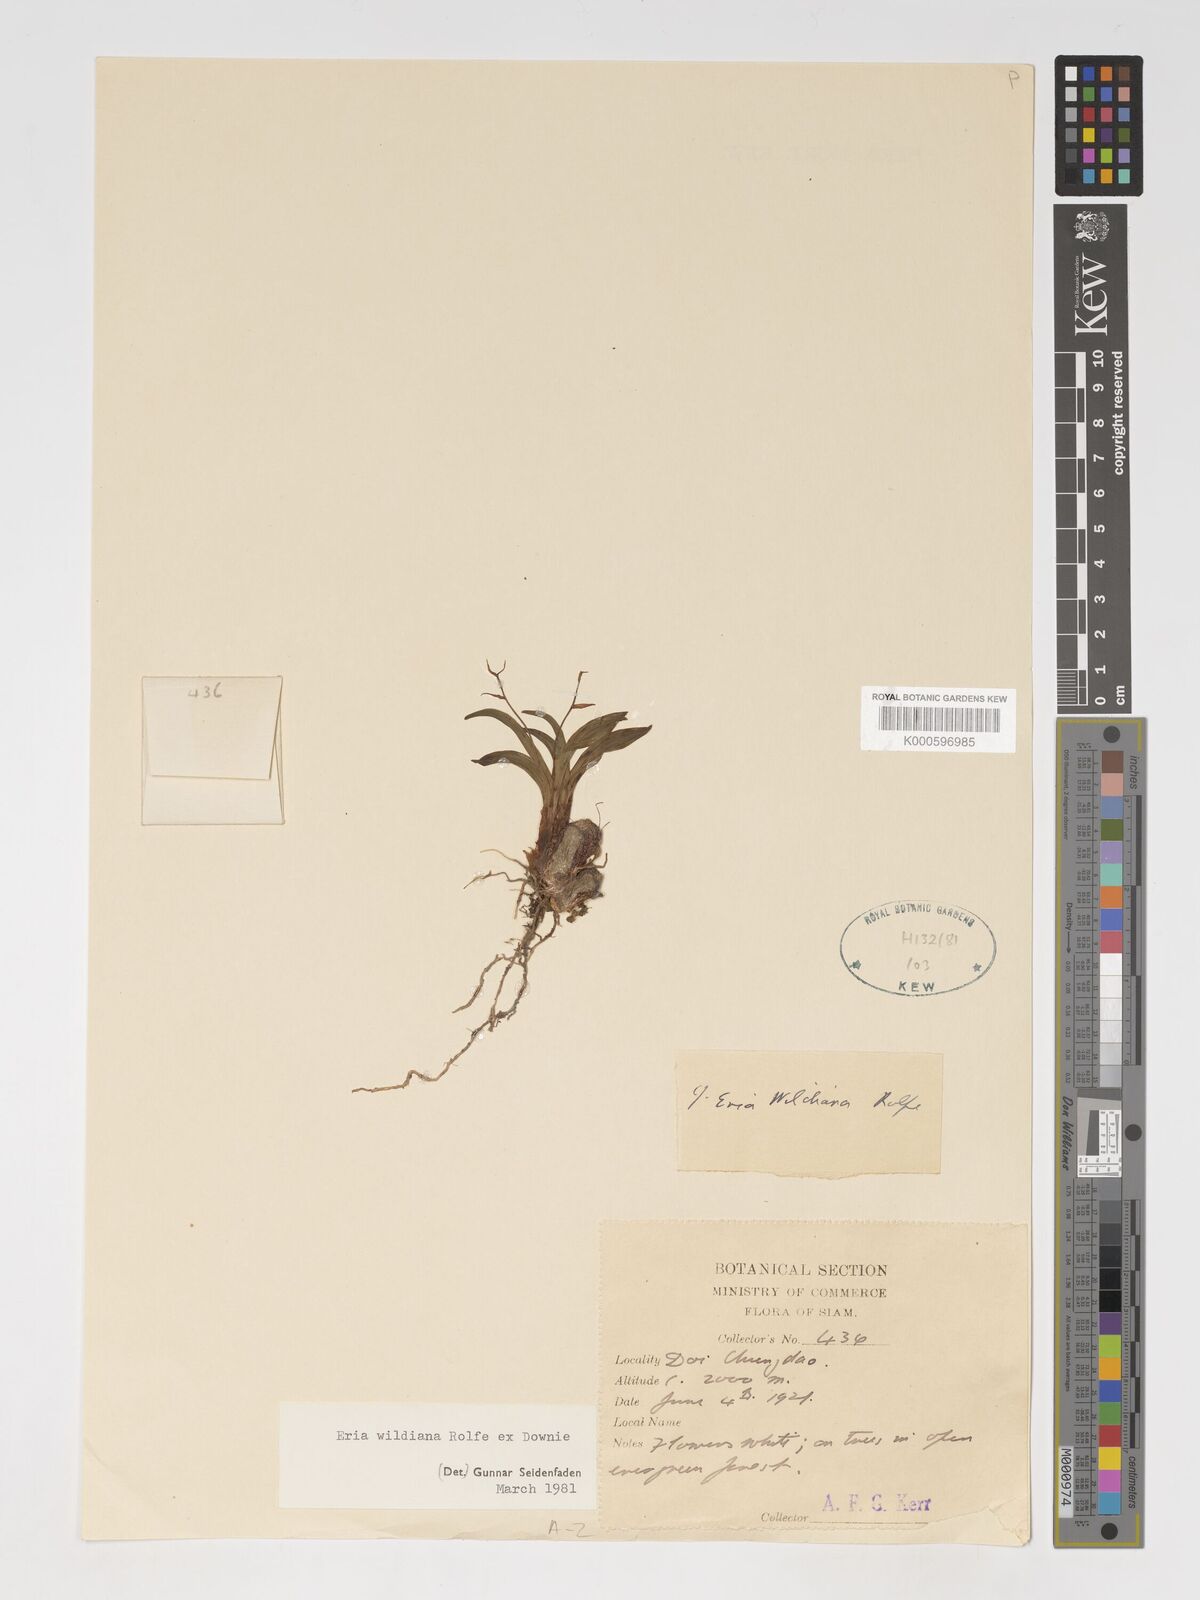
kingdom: Plantae
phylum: Tracheophyta
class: Liliopsida
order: Asparagales
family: Orchidaceae
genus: Pinalia
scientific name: Pinalia wildiana
